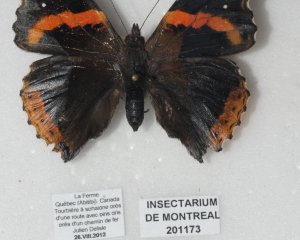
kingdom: Animalia
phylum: Arthropoda
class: Insecta
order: Lepidoptera
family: Nymphalidae
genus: Vanessa
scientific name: Vanessa atalanta
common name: Red Admiral
